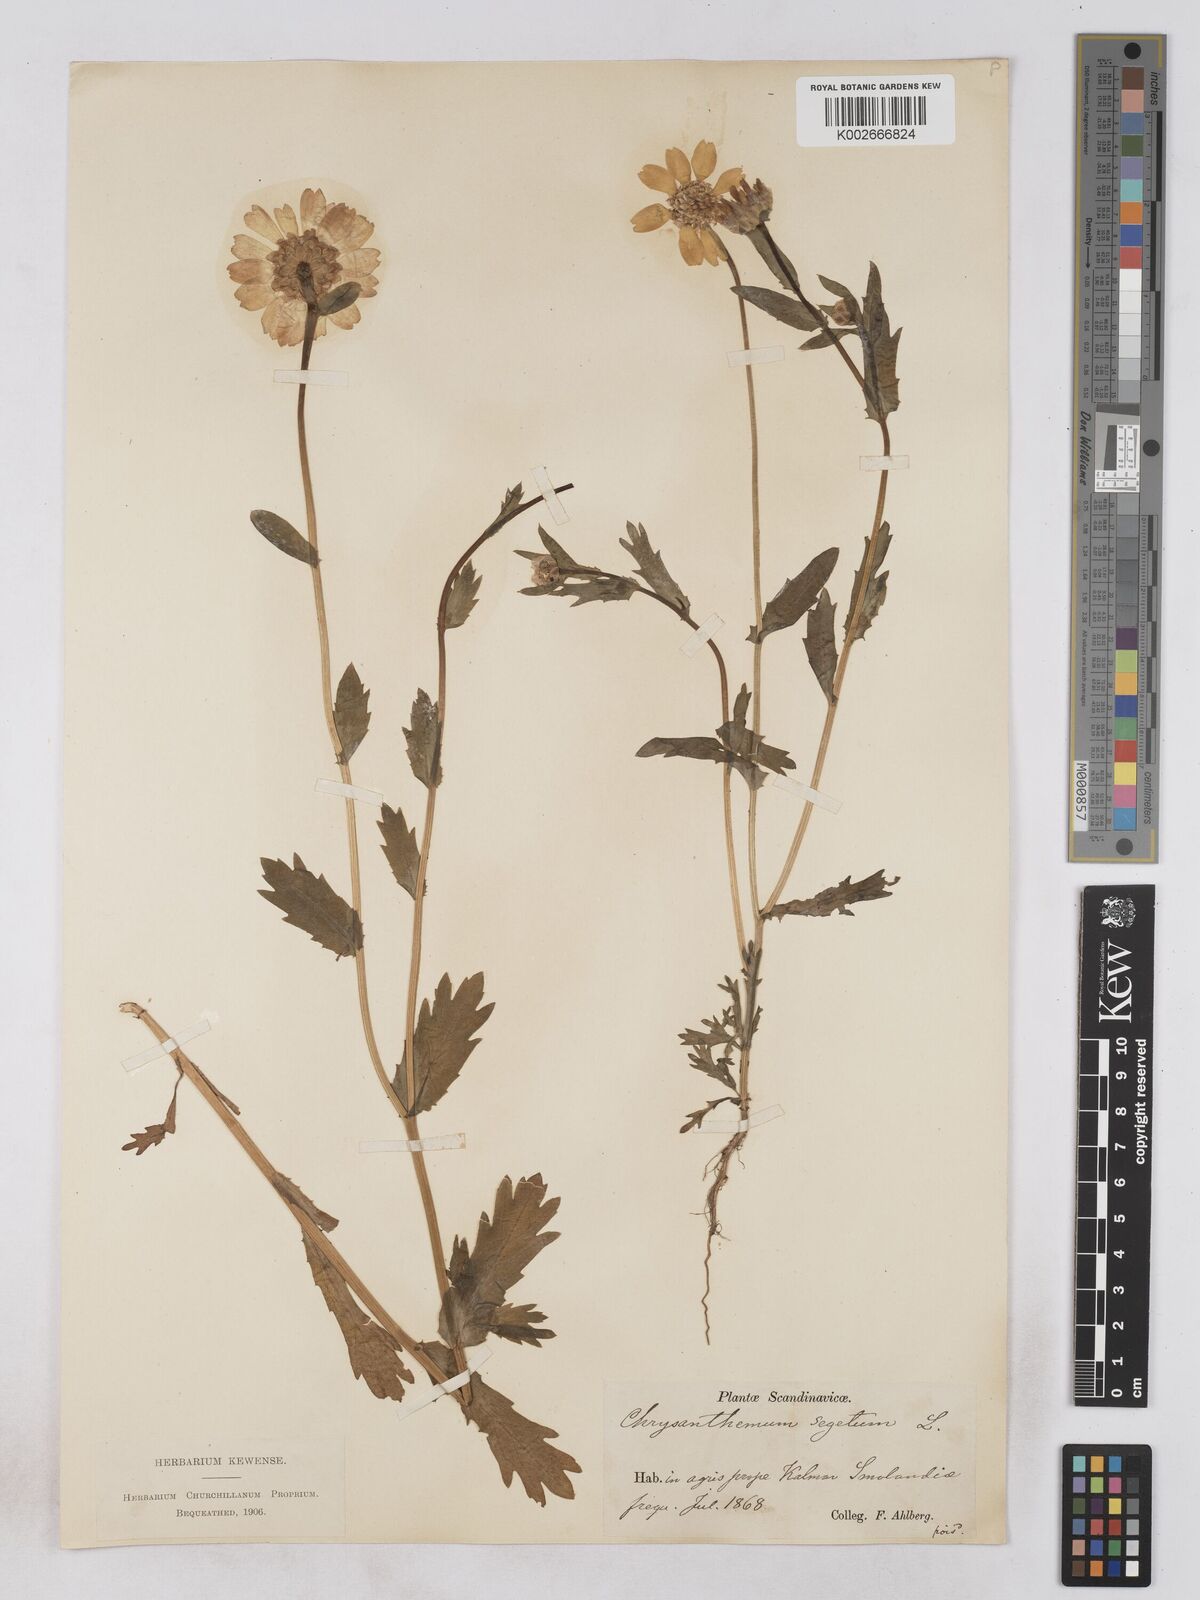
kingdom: Plantae
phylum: Tracheophyta
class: Magnoliopsida
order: Asterales
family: Asteraceae
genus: Glebionis
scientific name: Glebionis segetum
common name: Corndaisy
